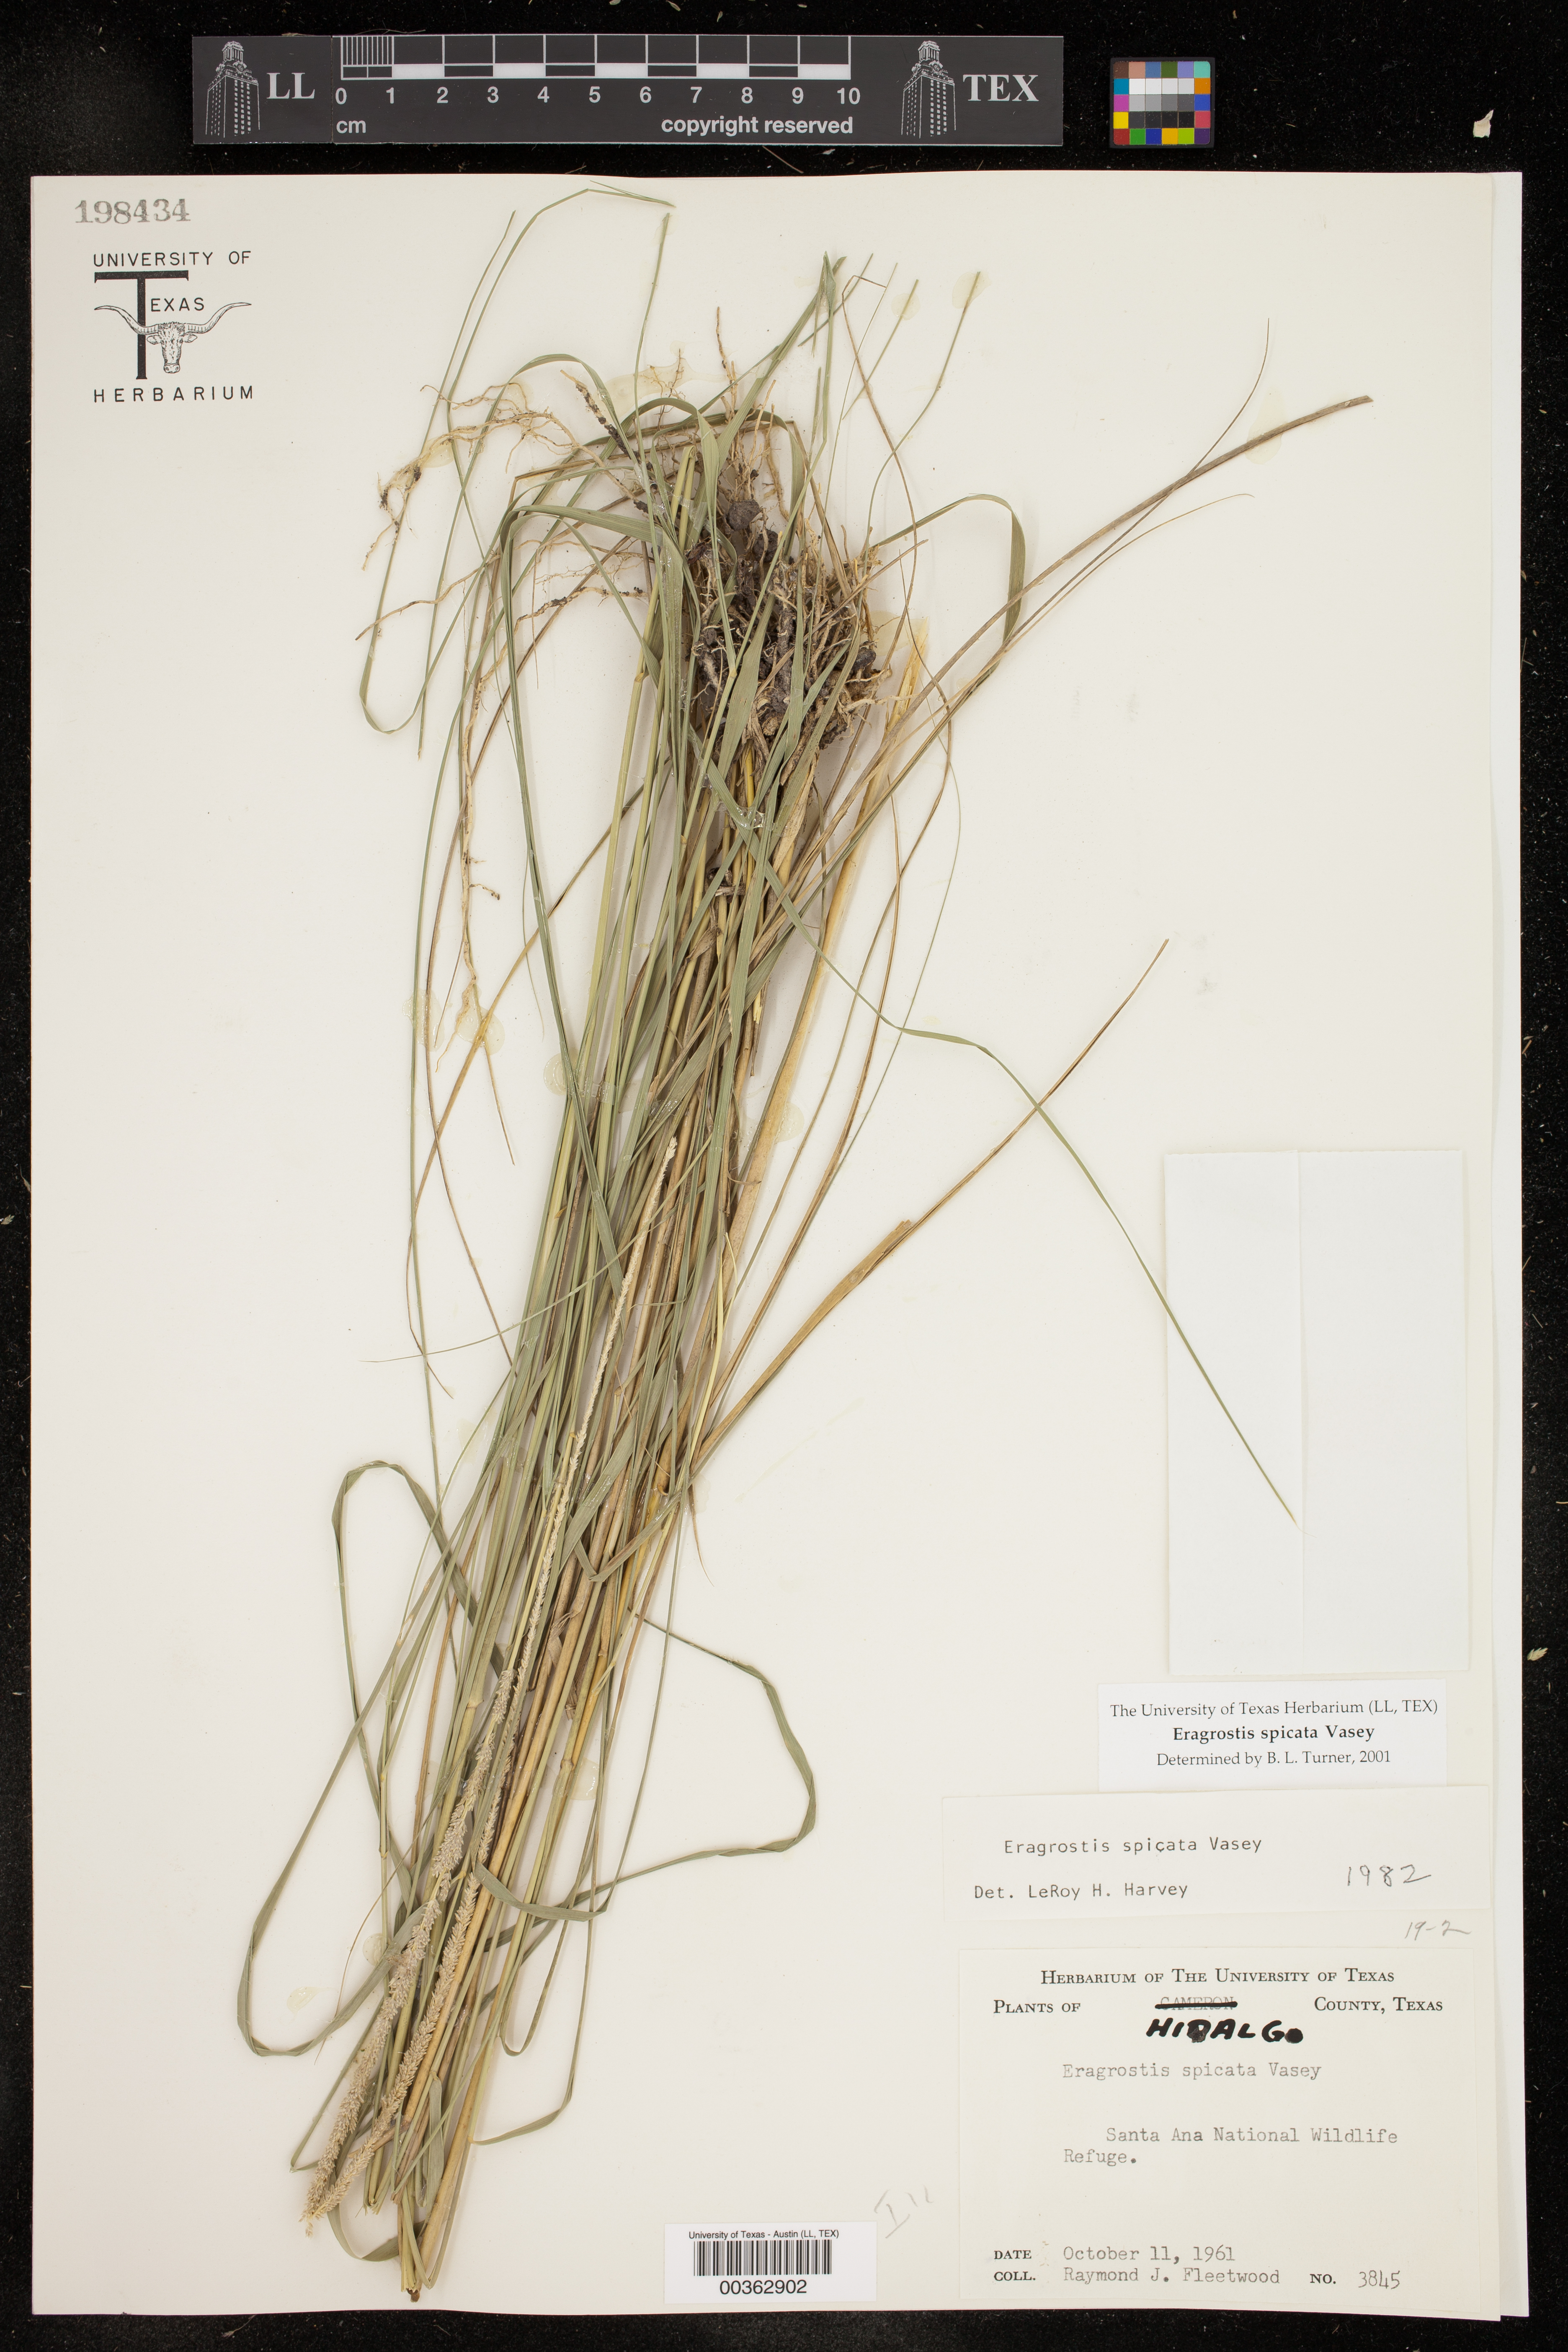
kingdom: Plantae
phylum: Tracheophyta
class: Liliopsida
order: Poales
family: Poaceae
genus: Eragrostis
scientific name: Eragrostis spicata
